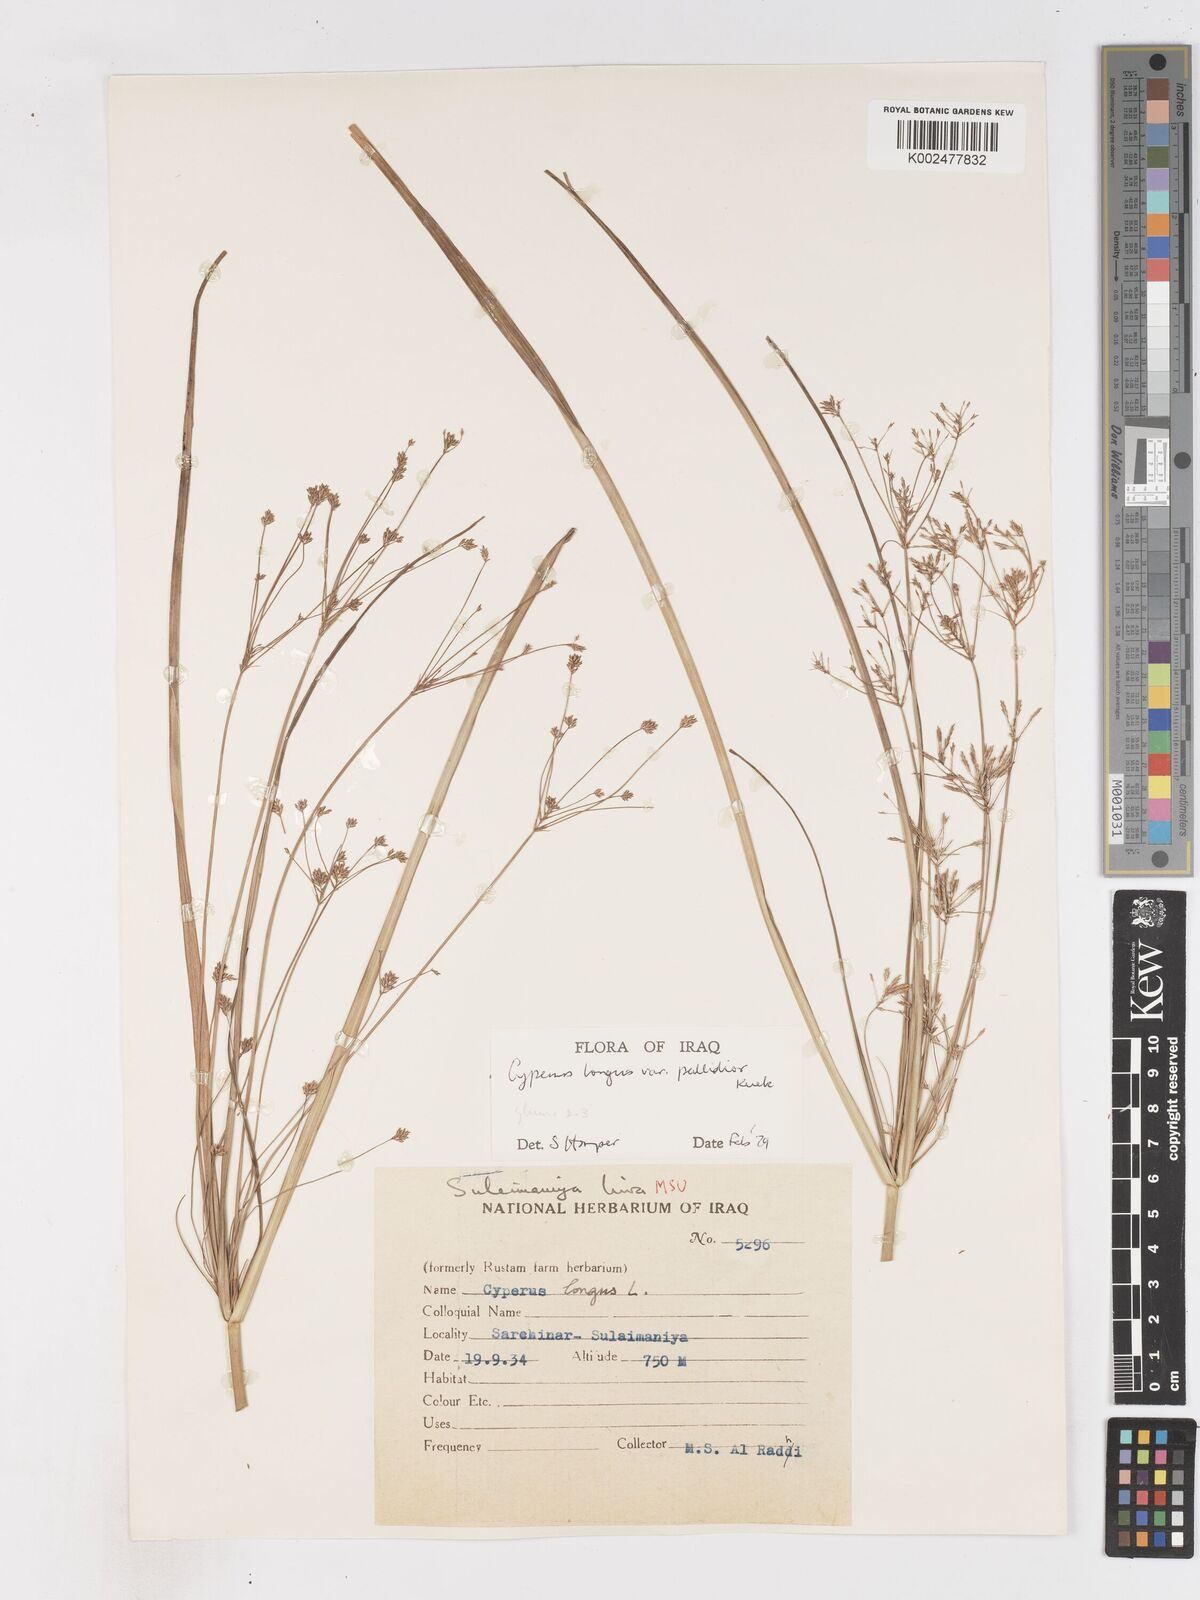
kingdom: Plantae
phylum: Tracheophyta
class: Liliopsida
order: Poales
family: Cyperaceae
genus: Cyperus
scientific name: Cyperus longus
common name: Galingale
